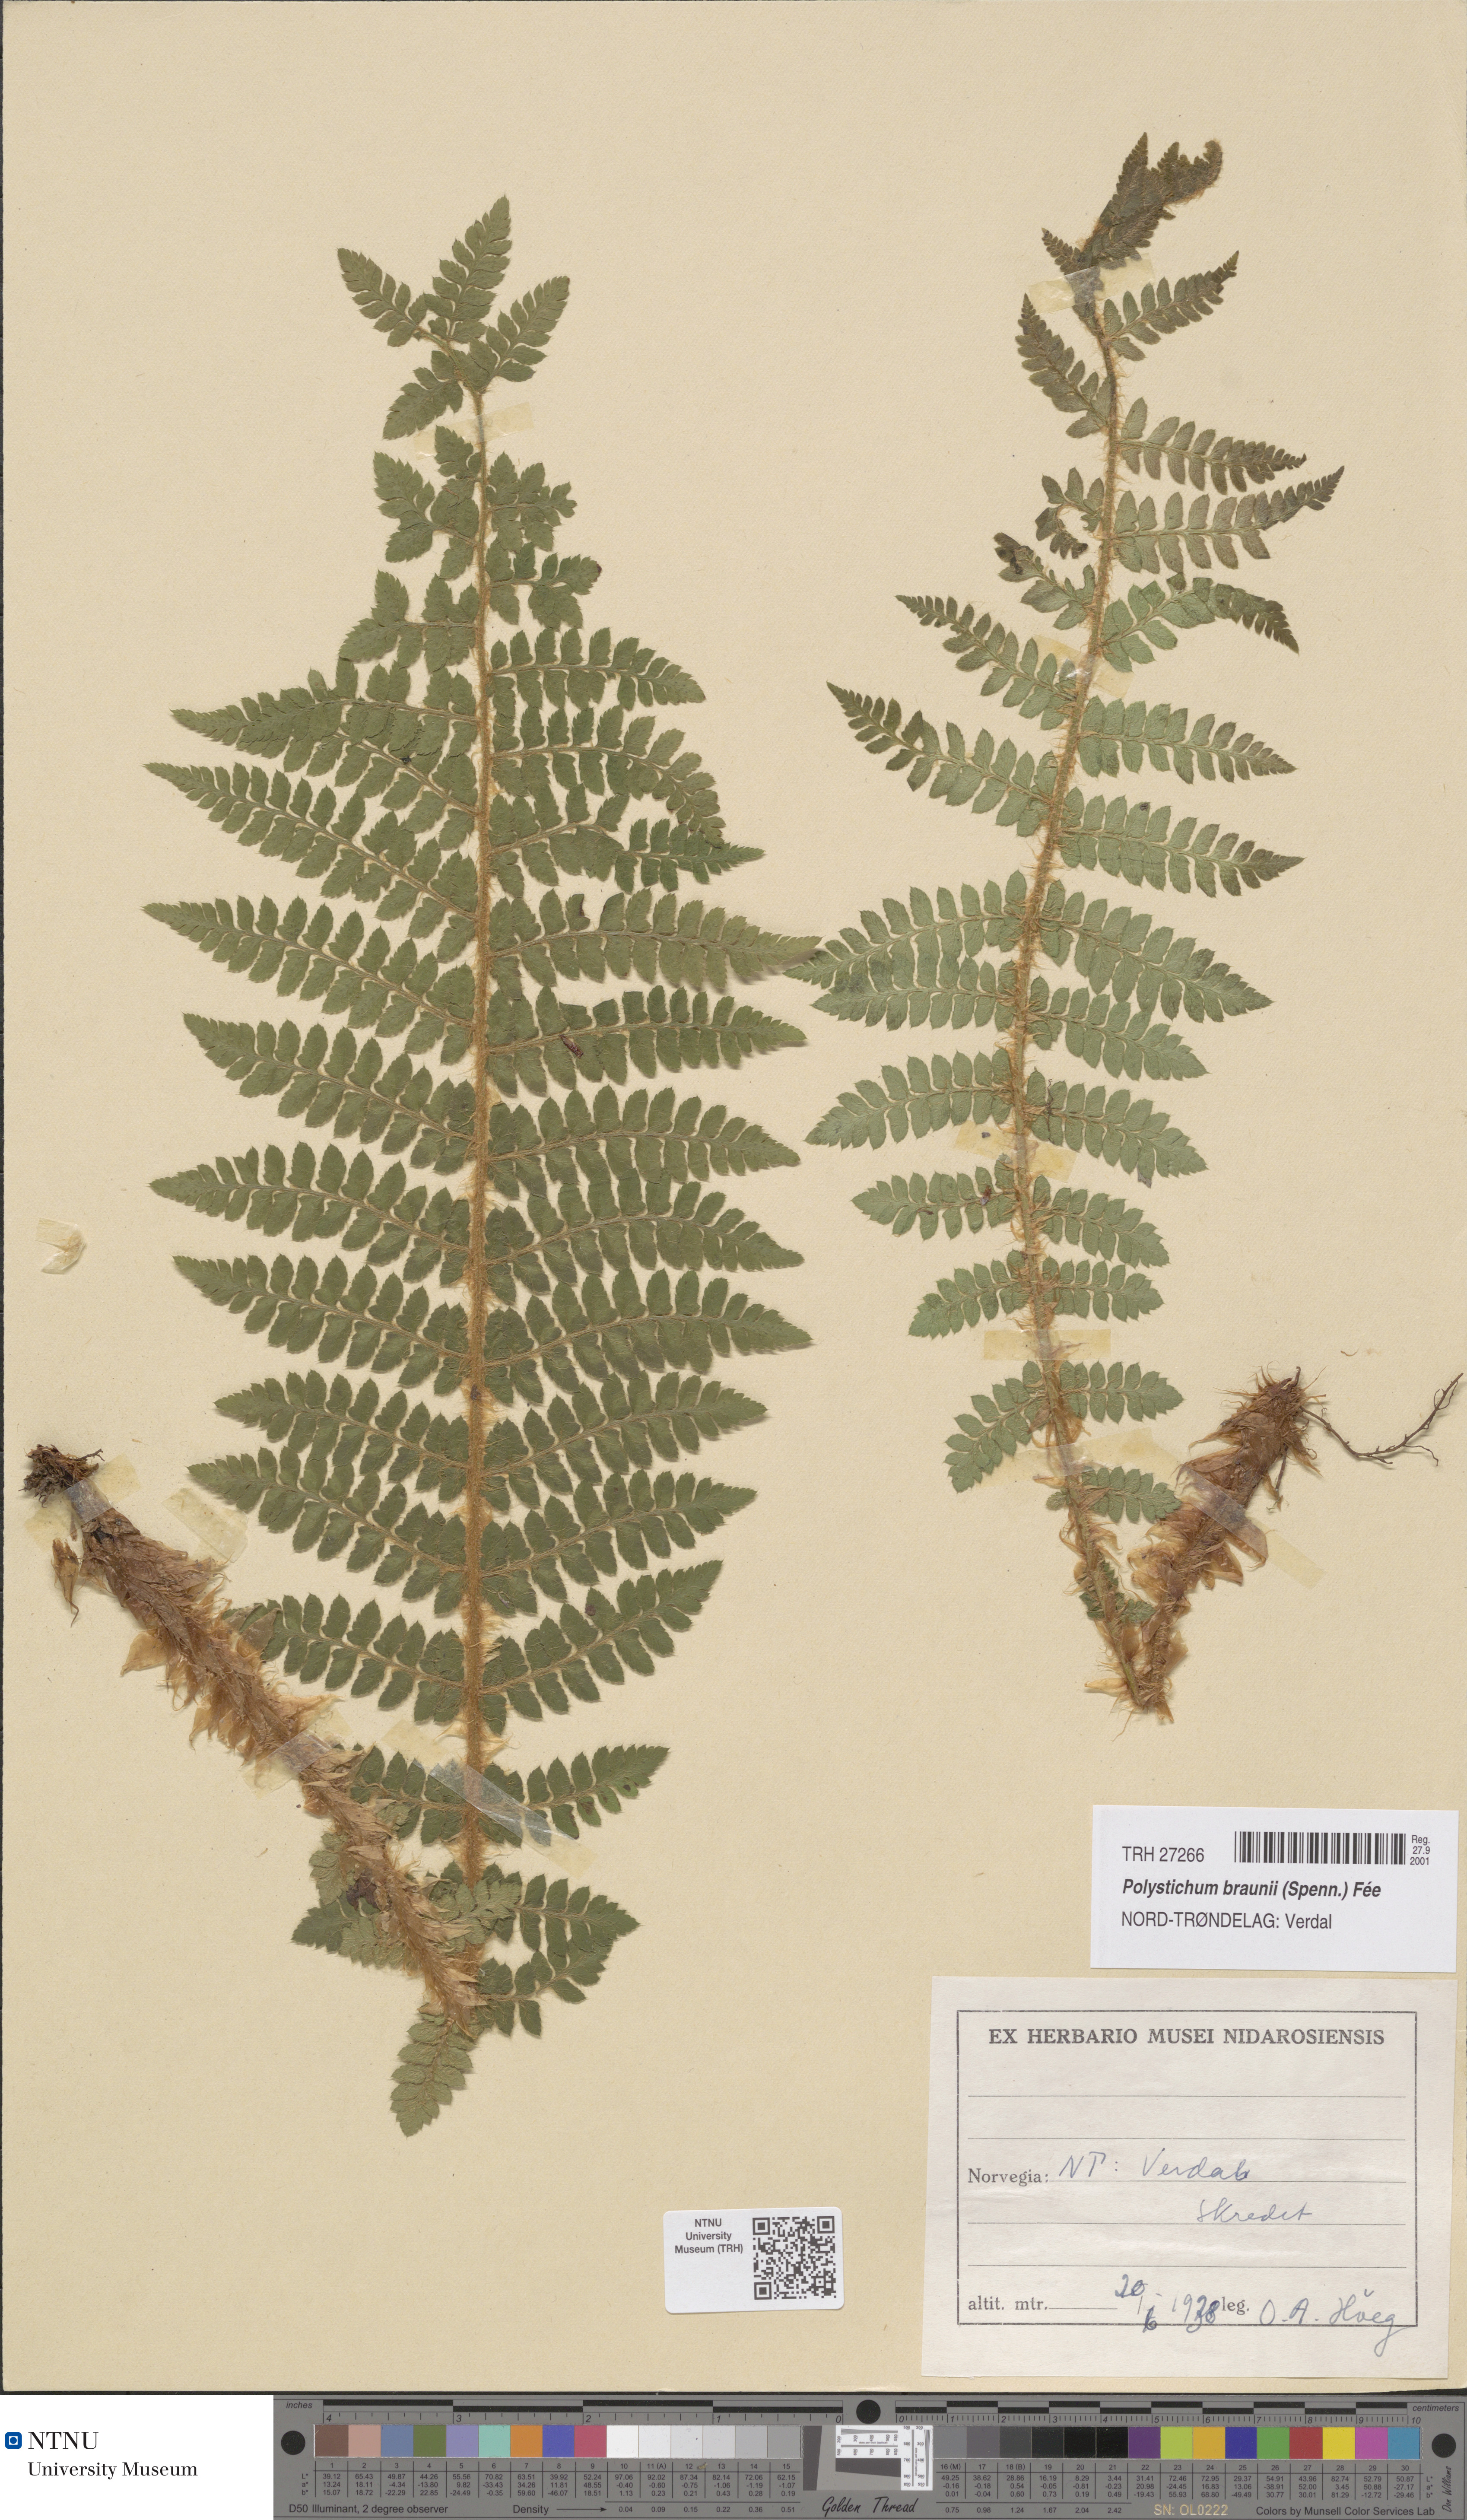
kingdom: Plantae
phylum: Tracheophyta
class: Polypodiopsida
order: Polypodiales
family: Dryopteridaceae
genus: Polystichum
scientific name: Polystichum braunii
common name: Braun's holly fern
